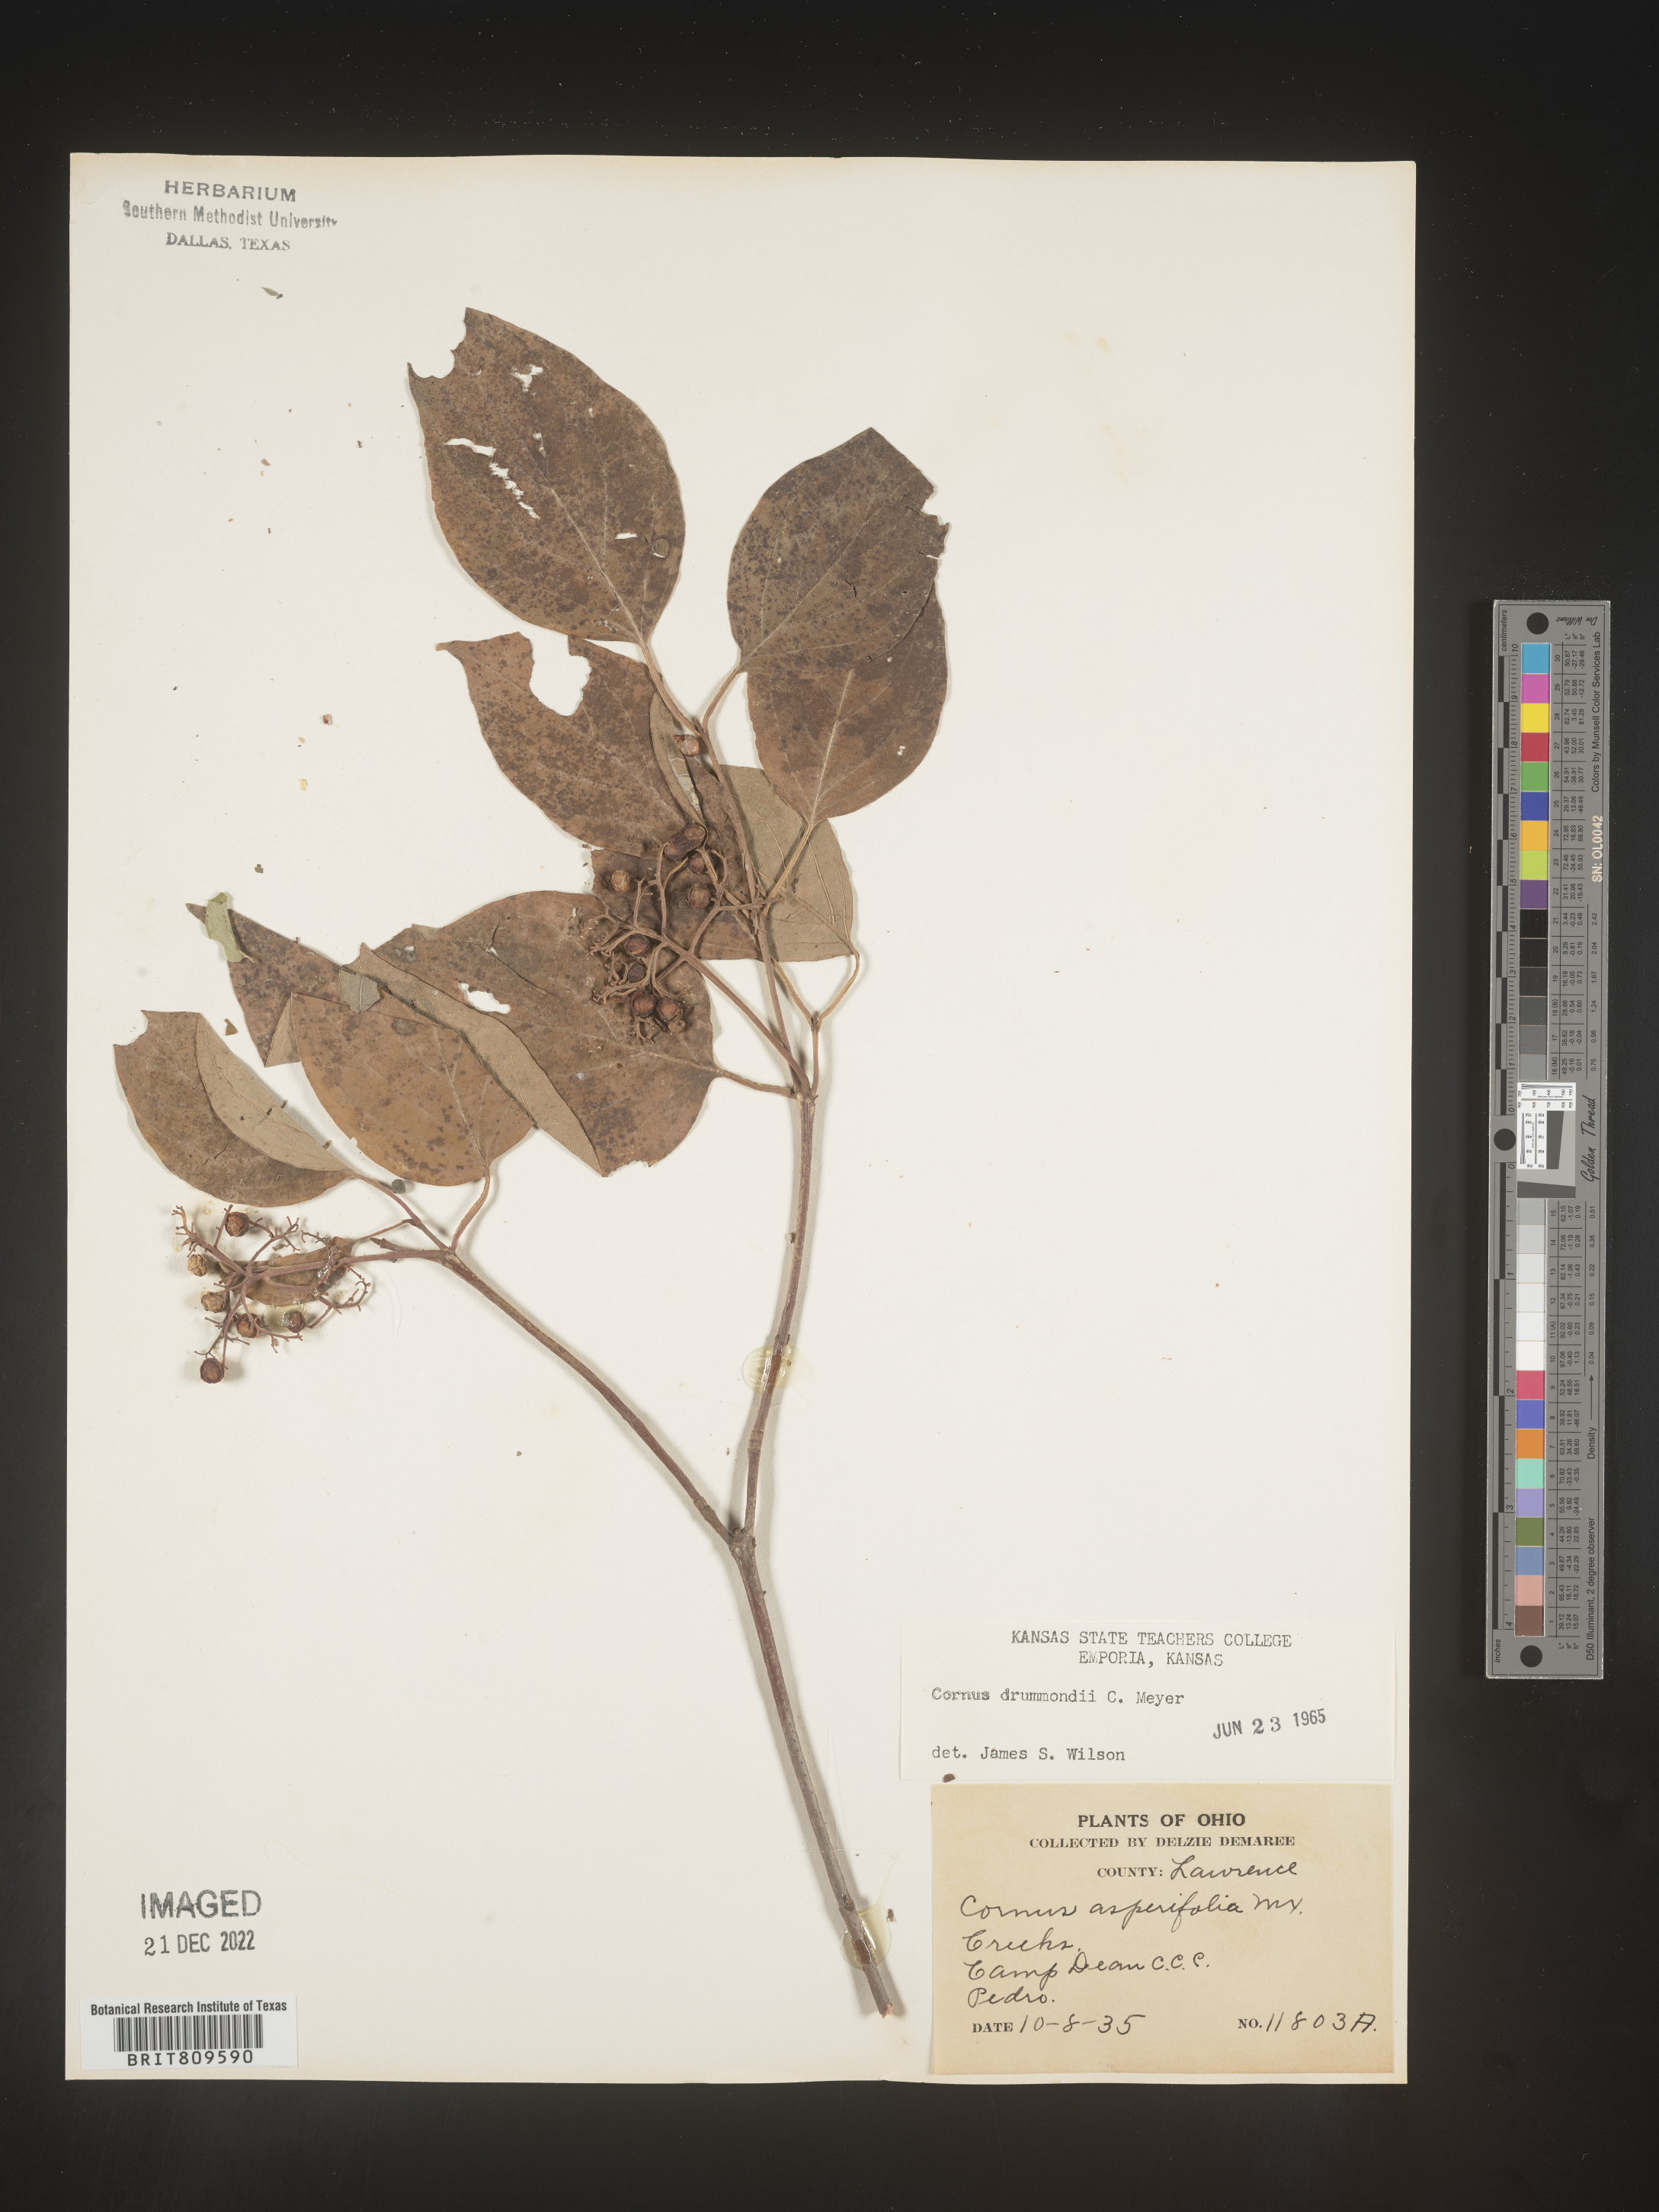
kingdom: Plantae
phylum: Tracheophyta
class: Magnoliopsida
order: Cornales
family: Cornaceae
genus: Cornus
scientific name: Cornus drummondii
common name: Rough-leaf dogwood
